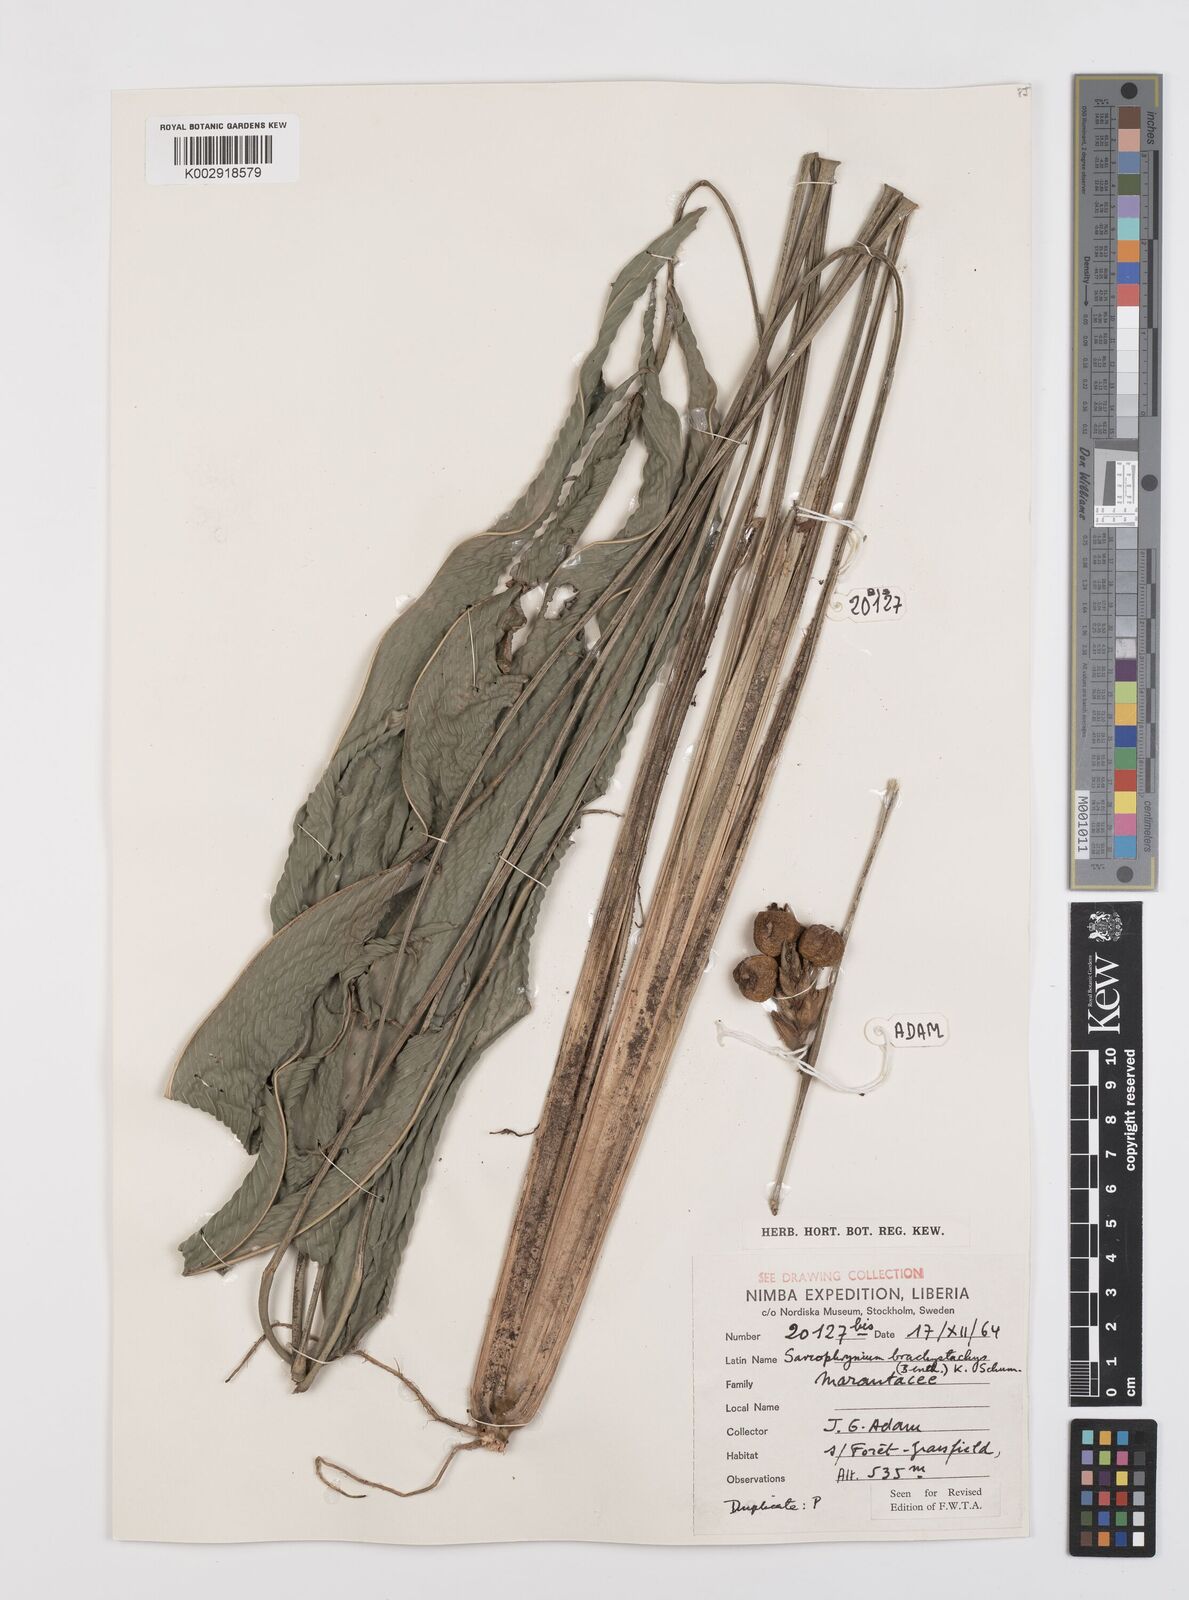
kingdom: Plantae
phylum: Tracheophyta
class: Liliopsida
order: Zingiberales
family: Marantaceae
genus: Sarcophrynium
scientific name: Sarcophrynium brachystachyum
